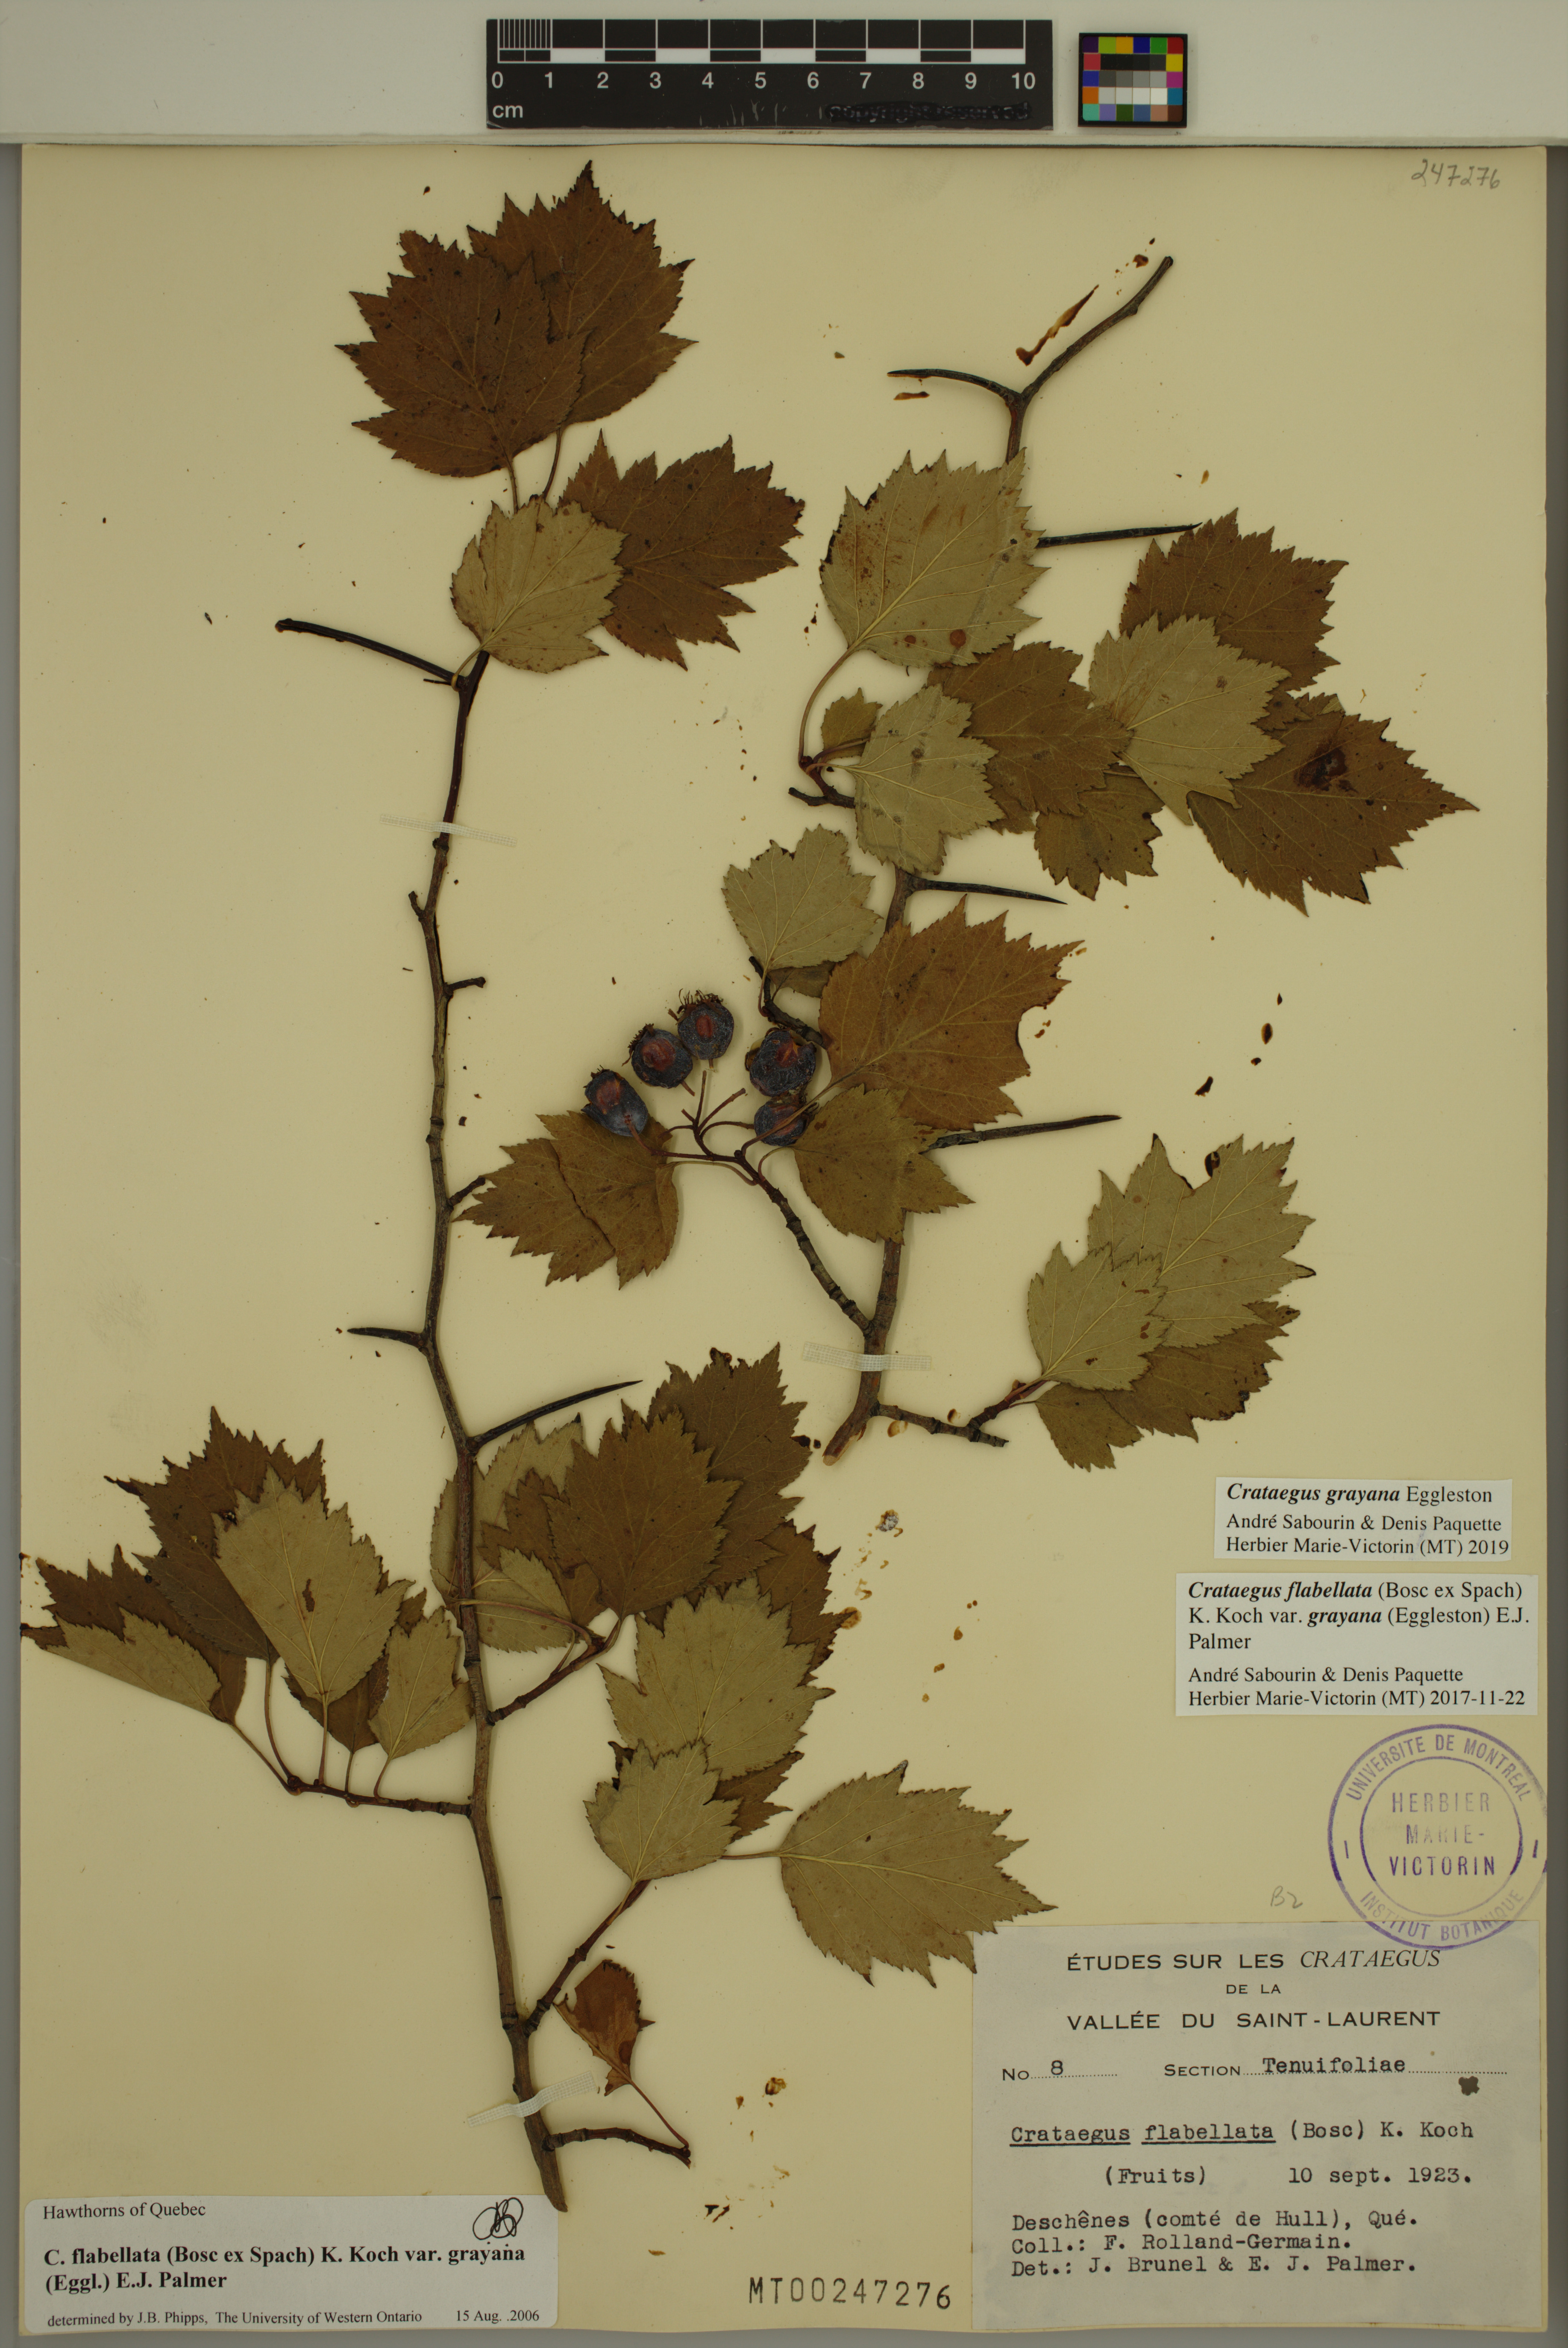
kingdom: Plantae
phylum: Tracheophyta
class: Magnoliopsida
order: Rosales
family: Rosaceae
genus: Crataegus
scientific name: Crataegus schuettei
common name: Schuette's hawthorn
